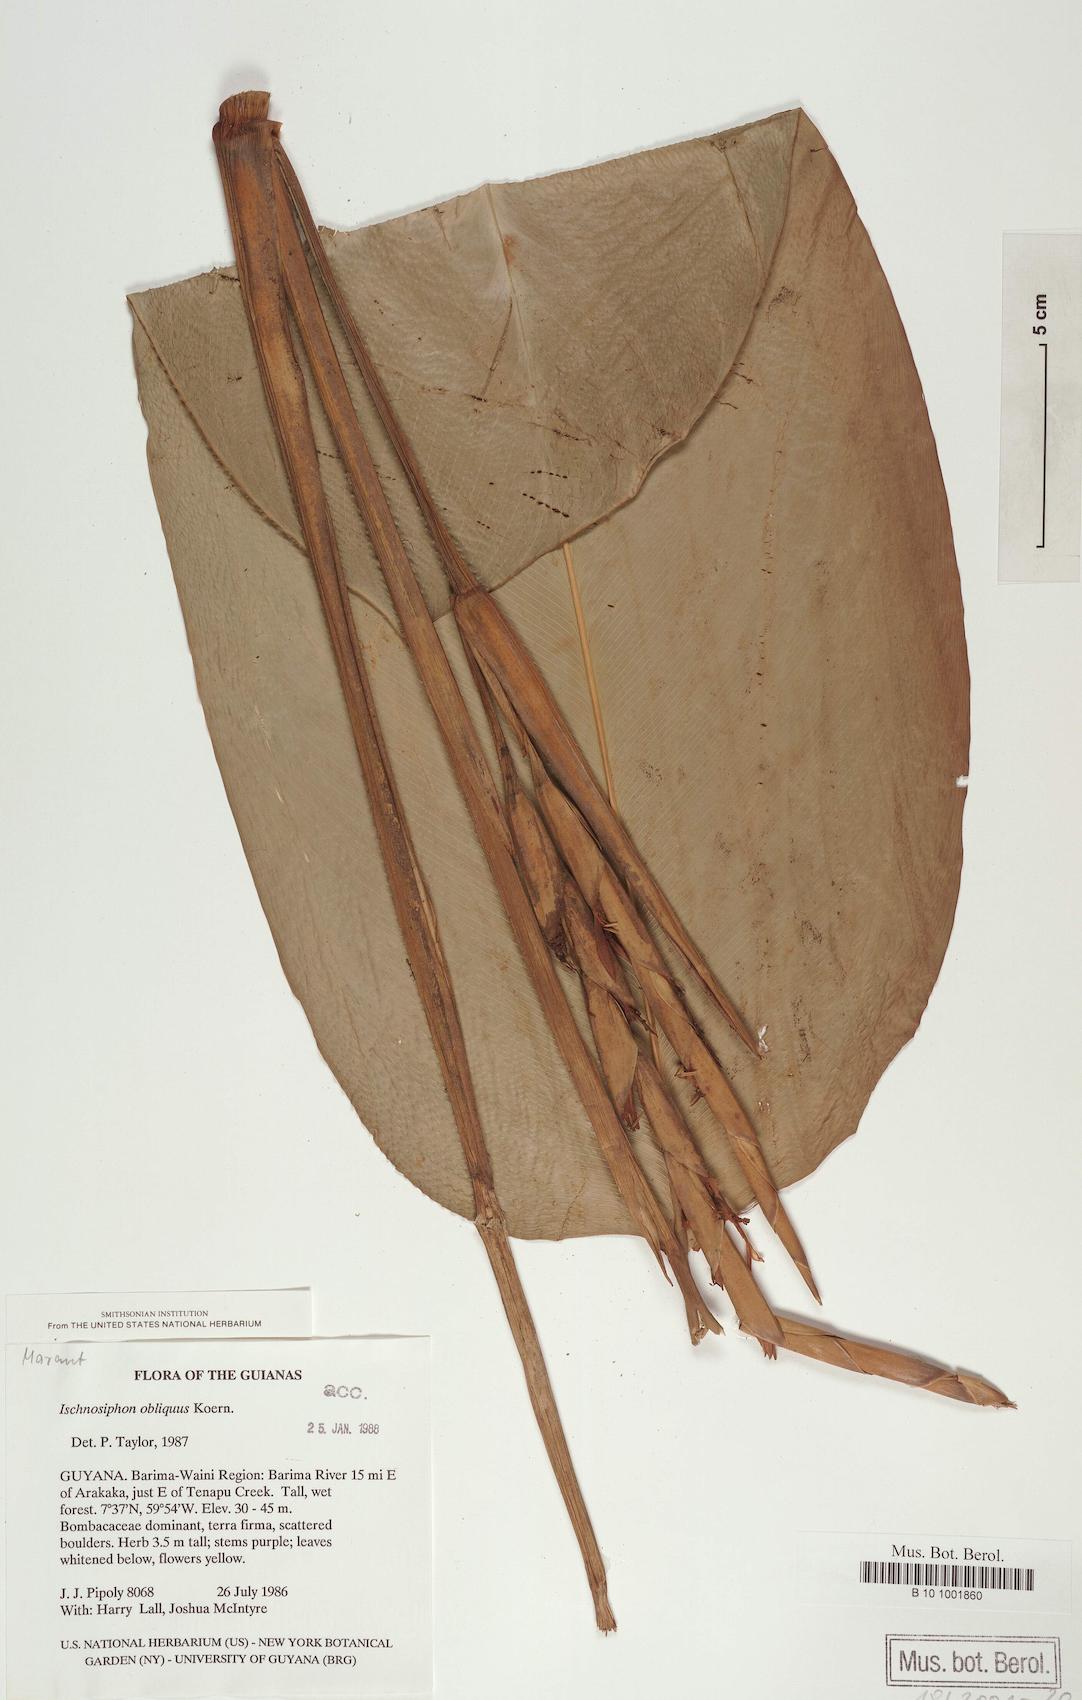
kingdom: Plantae
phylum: Tracheophyta
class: Liliopsida
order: Zingiberales
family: Marantaceae
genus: Ischnosiphon
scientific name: Ischnosiphon obliquus
